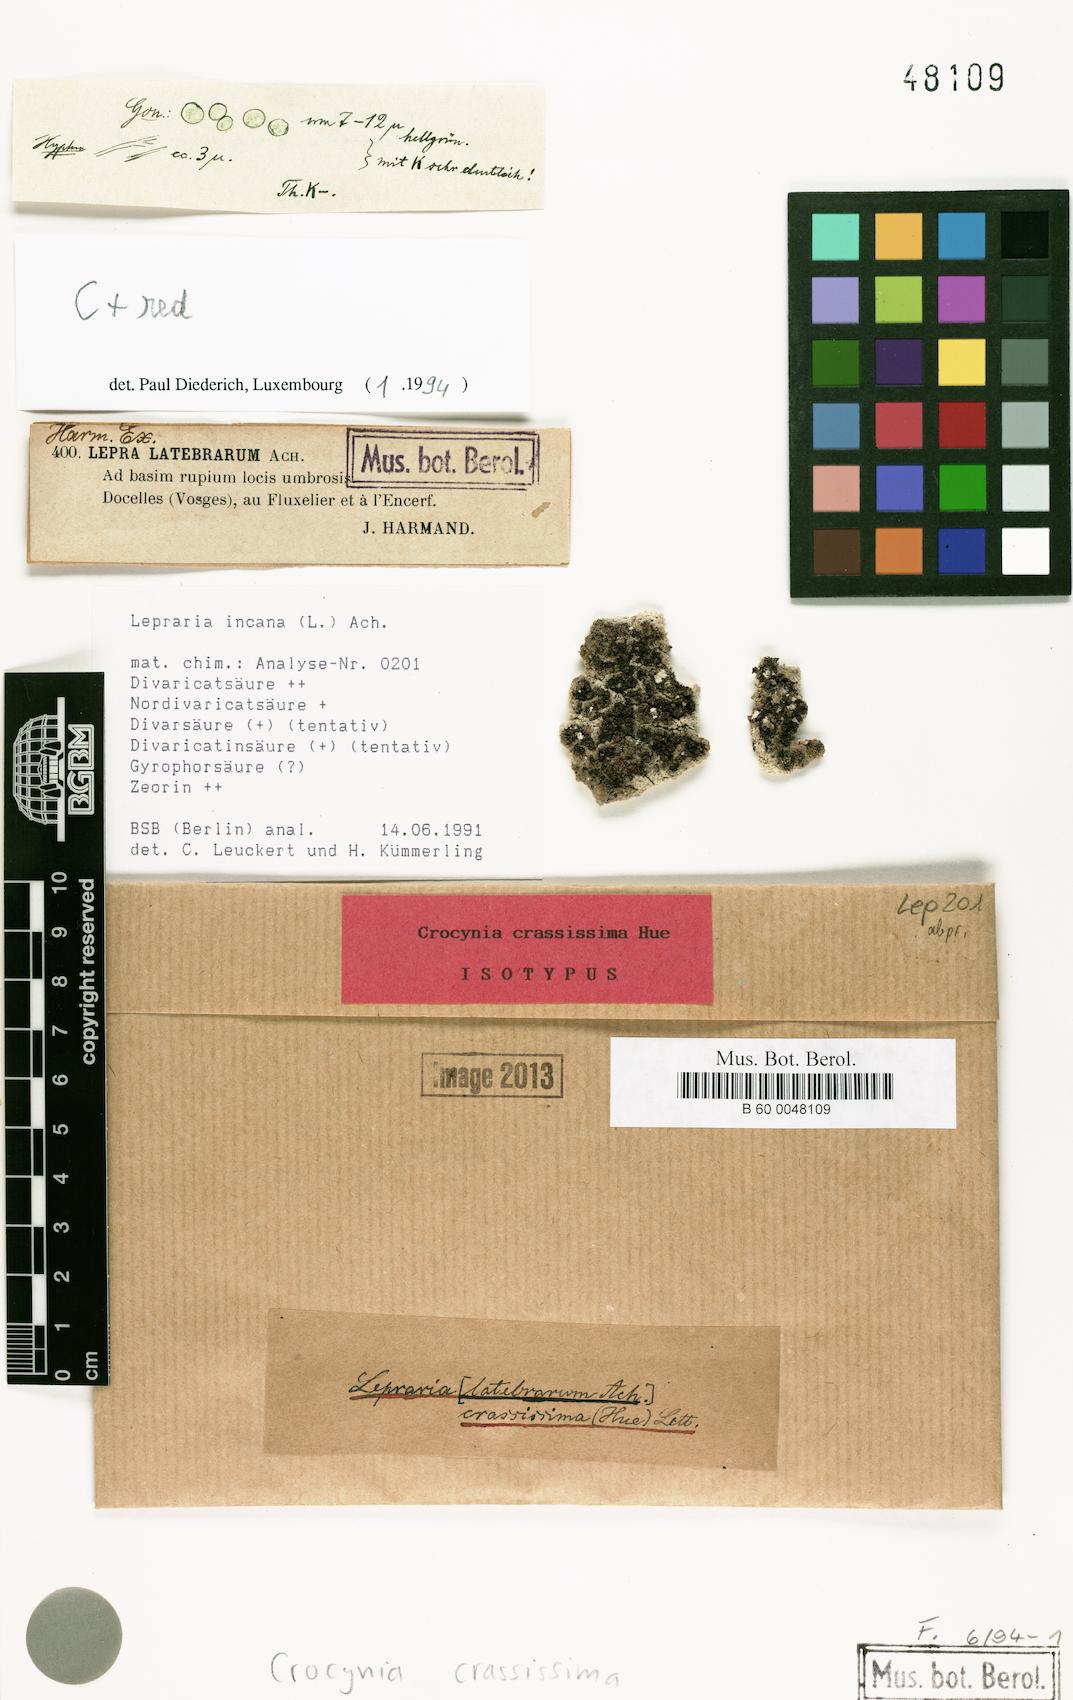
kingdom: Fungi
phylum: Ascomycota
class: Lecanoromycetes
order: Lecanorales
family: Stereocaulaceae
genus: Lepraria
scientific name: Lepraria crassissima
